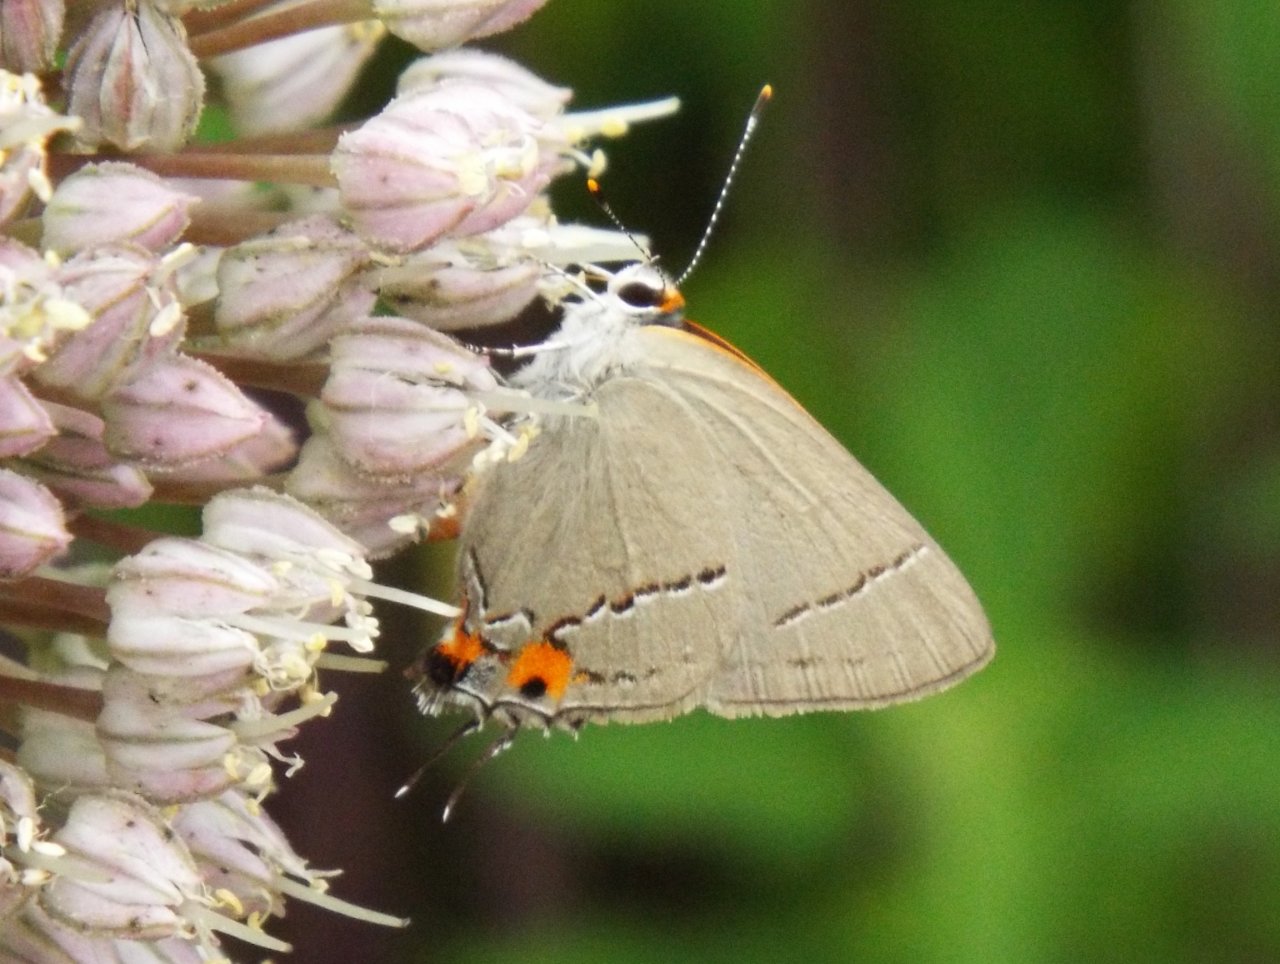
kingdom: Animalia
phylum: Arthropoda
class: Insecta
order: Lepidoptera
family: Lycaenidae
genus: Strymon
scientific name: Strymon melinus
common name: Gray Hairstreak
